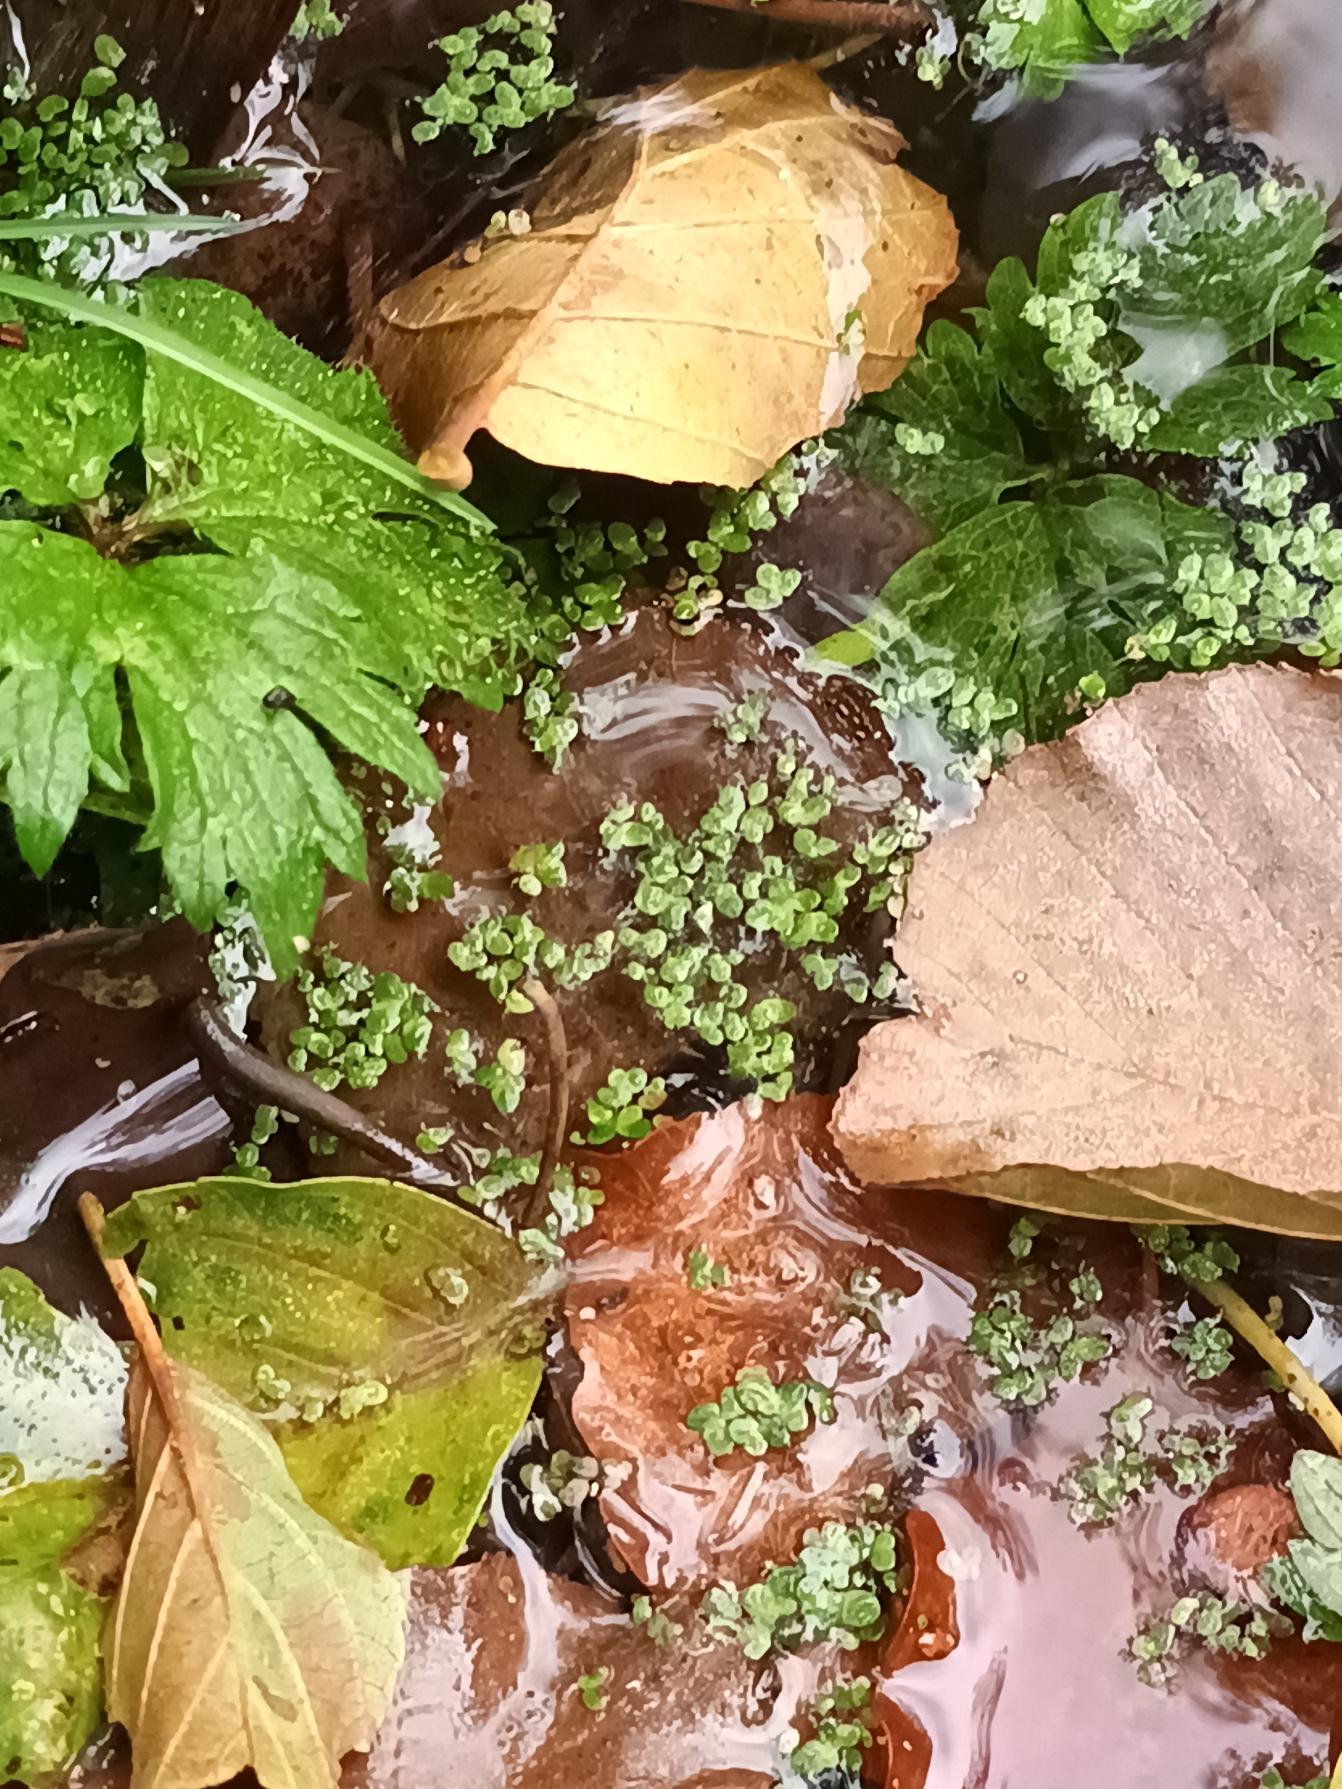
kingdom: Plantae
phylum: Tracheophyta
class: Liliopsida
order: Alismatales
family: Araceae
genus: Lemna
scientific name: Lemna minor
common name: Liden andemad
